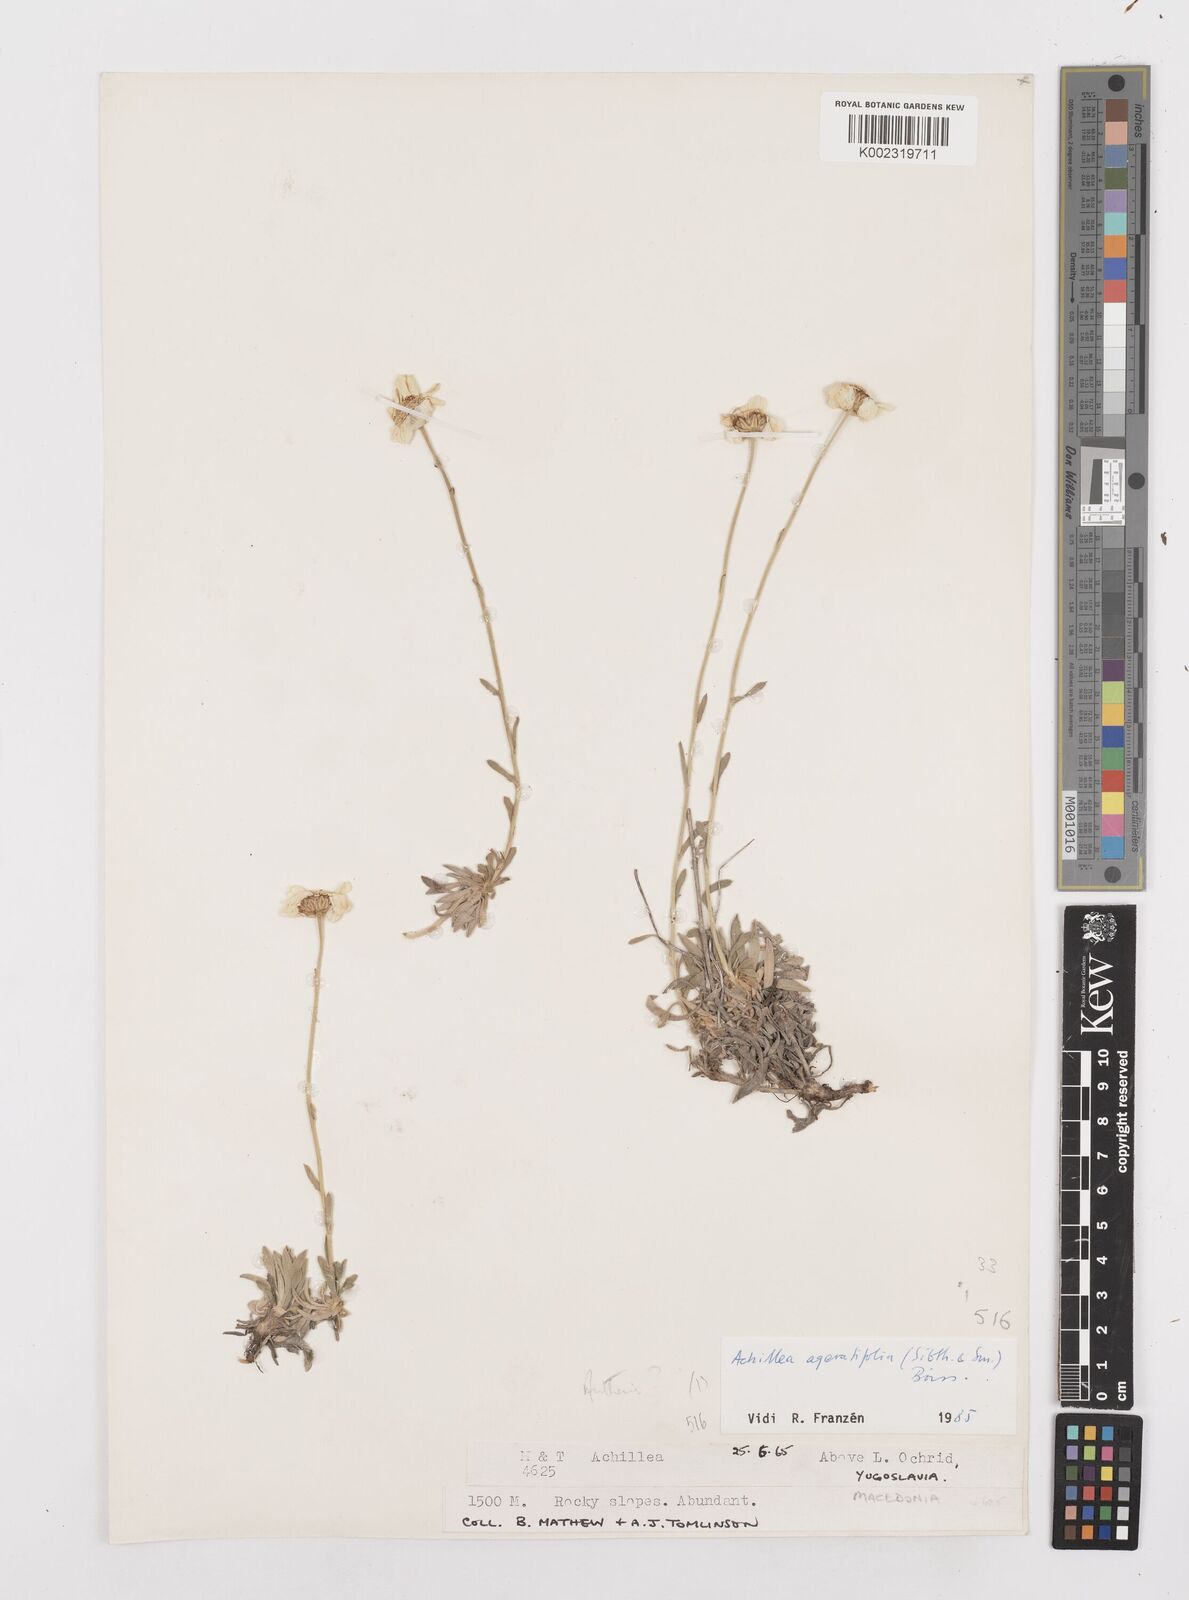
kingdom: Plantae
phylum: Tracheophyta
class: Magnoliopsida
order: Asterales
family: Asteraceae
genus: Achillea
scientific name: Achillea ageratifolia
